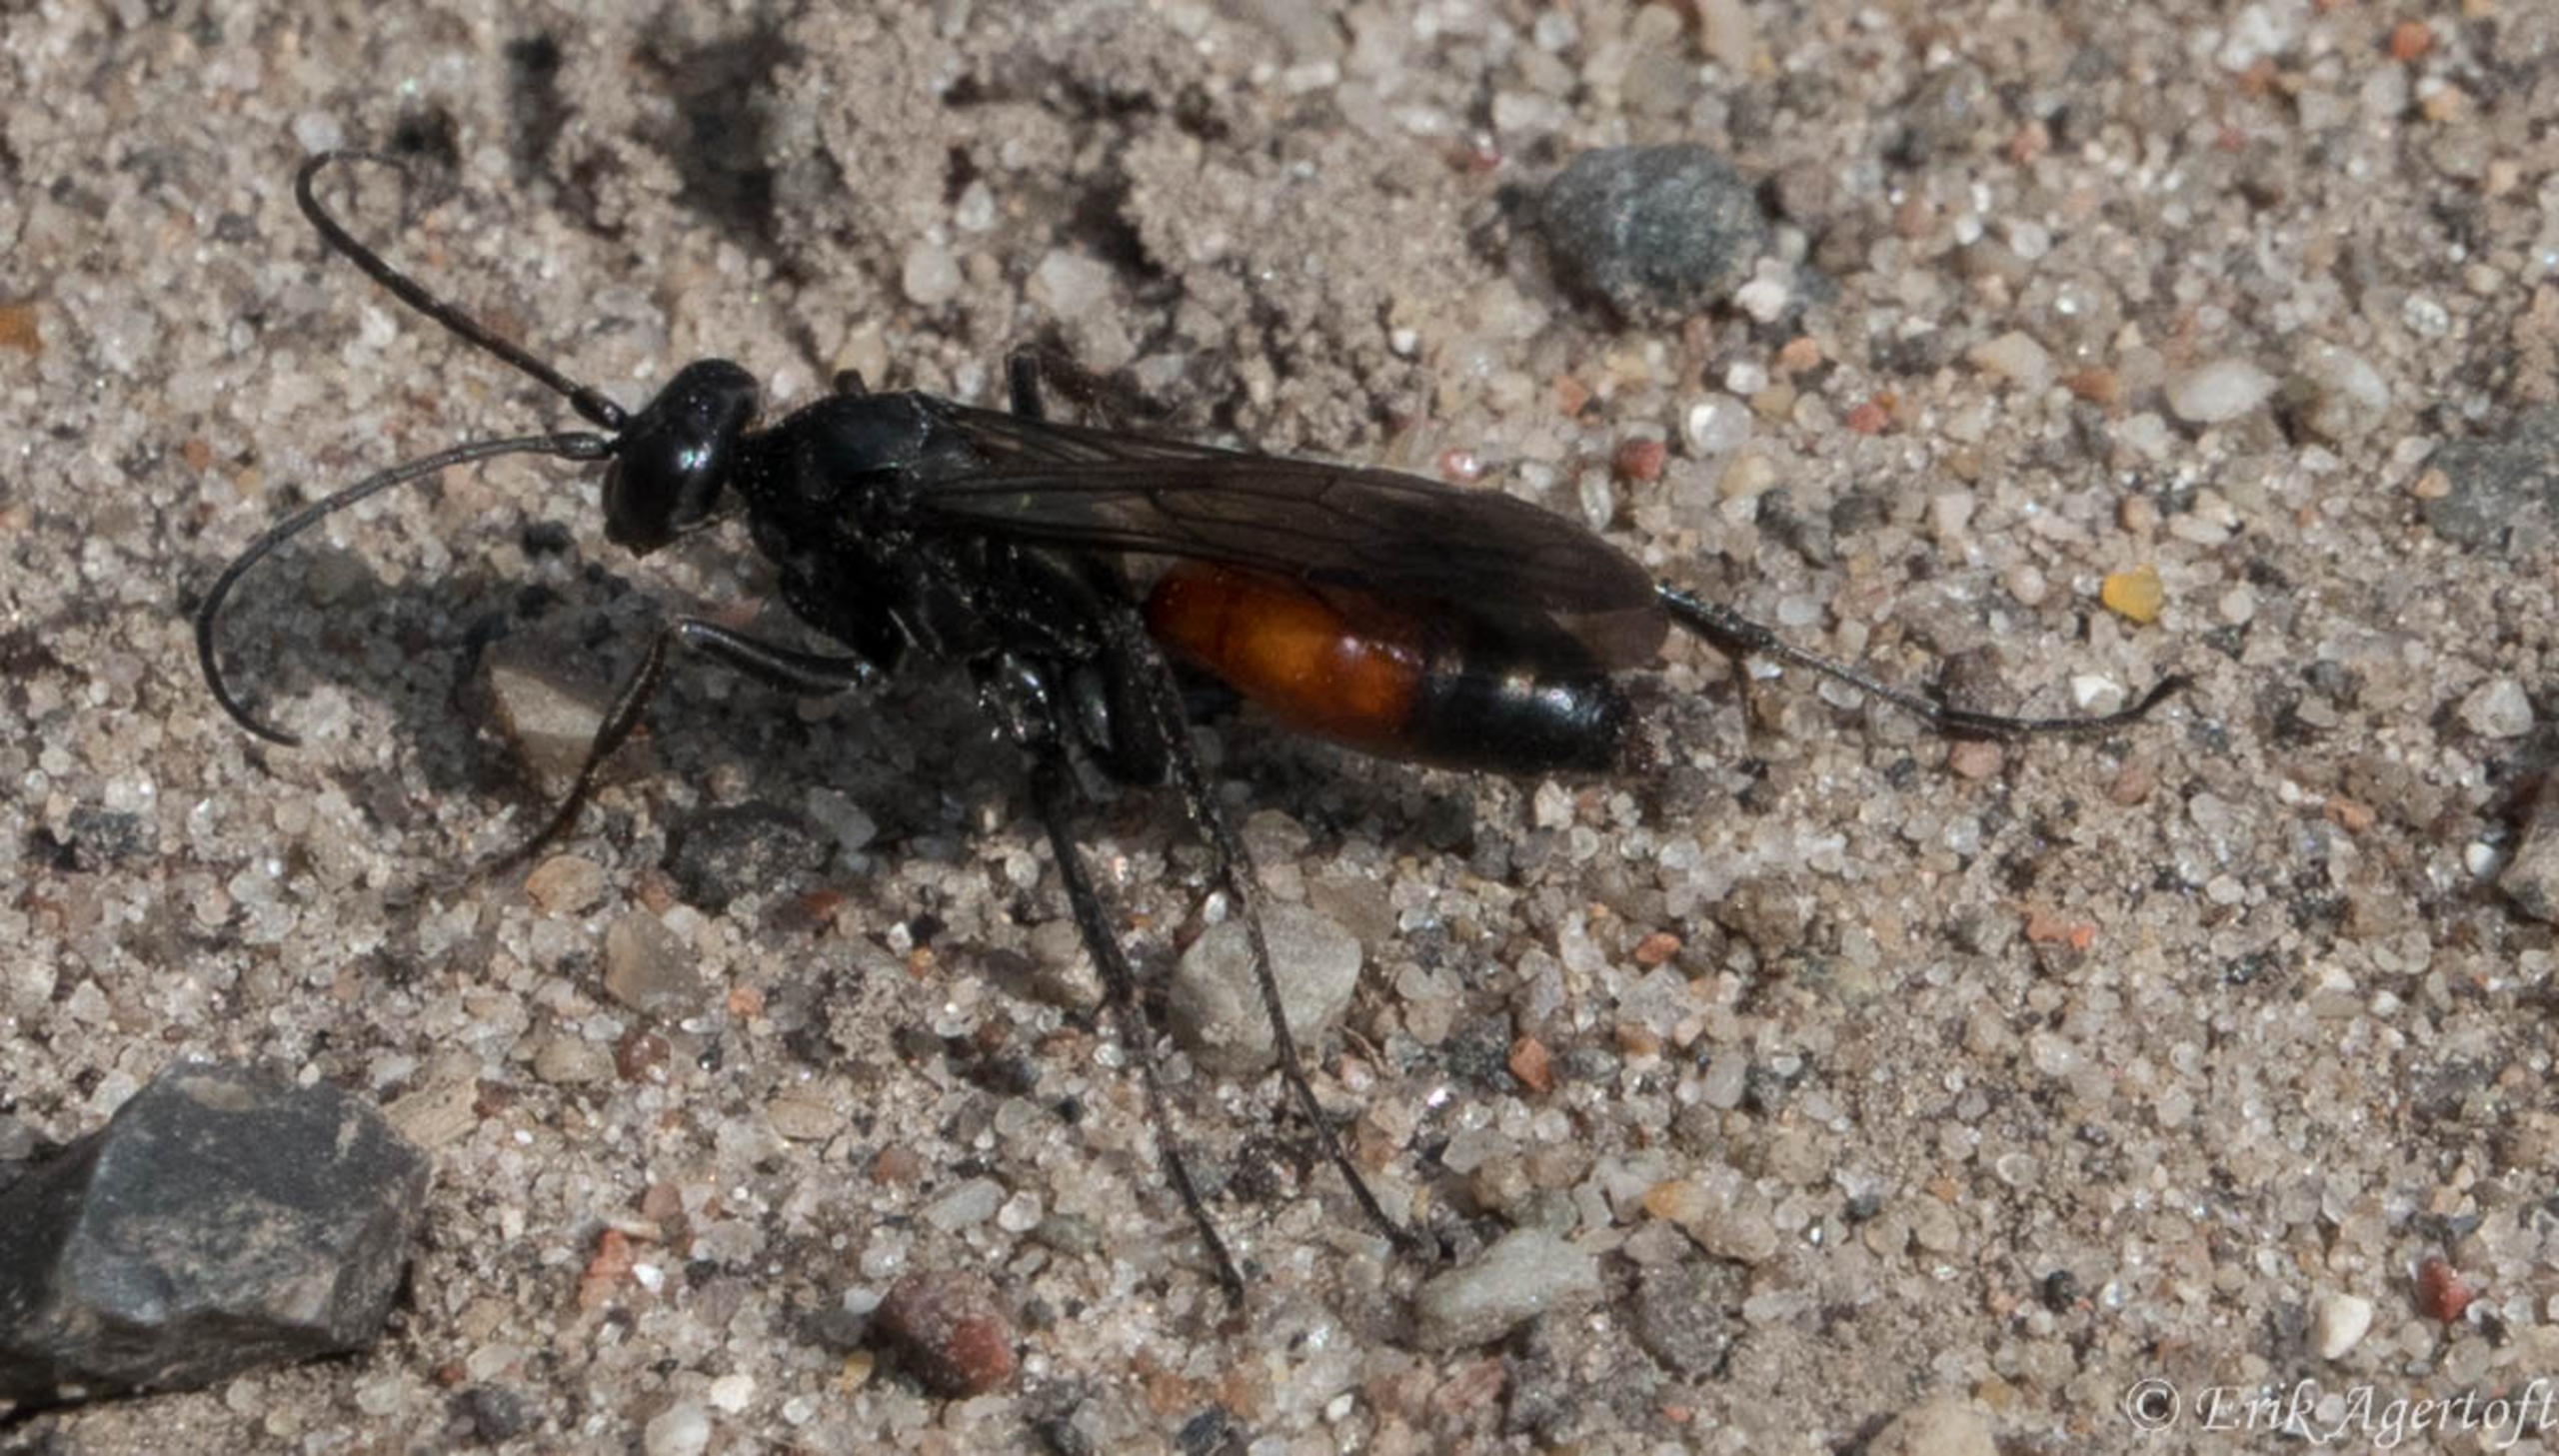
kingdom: Animalia
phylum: Arthropoda
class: Insecta
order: Hymenoptera
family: Pompilidae
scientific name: Pompilidae
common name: Vejhvepse
